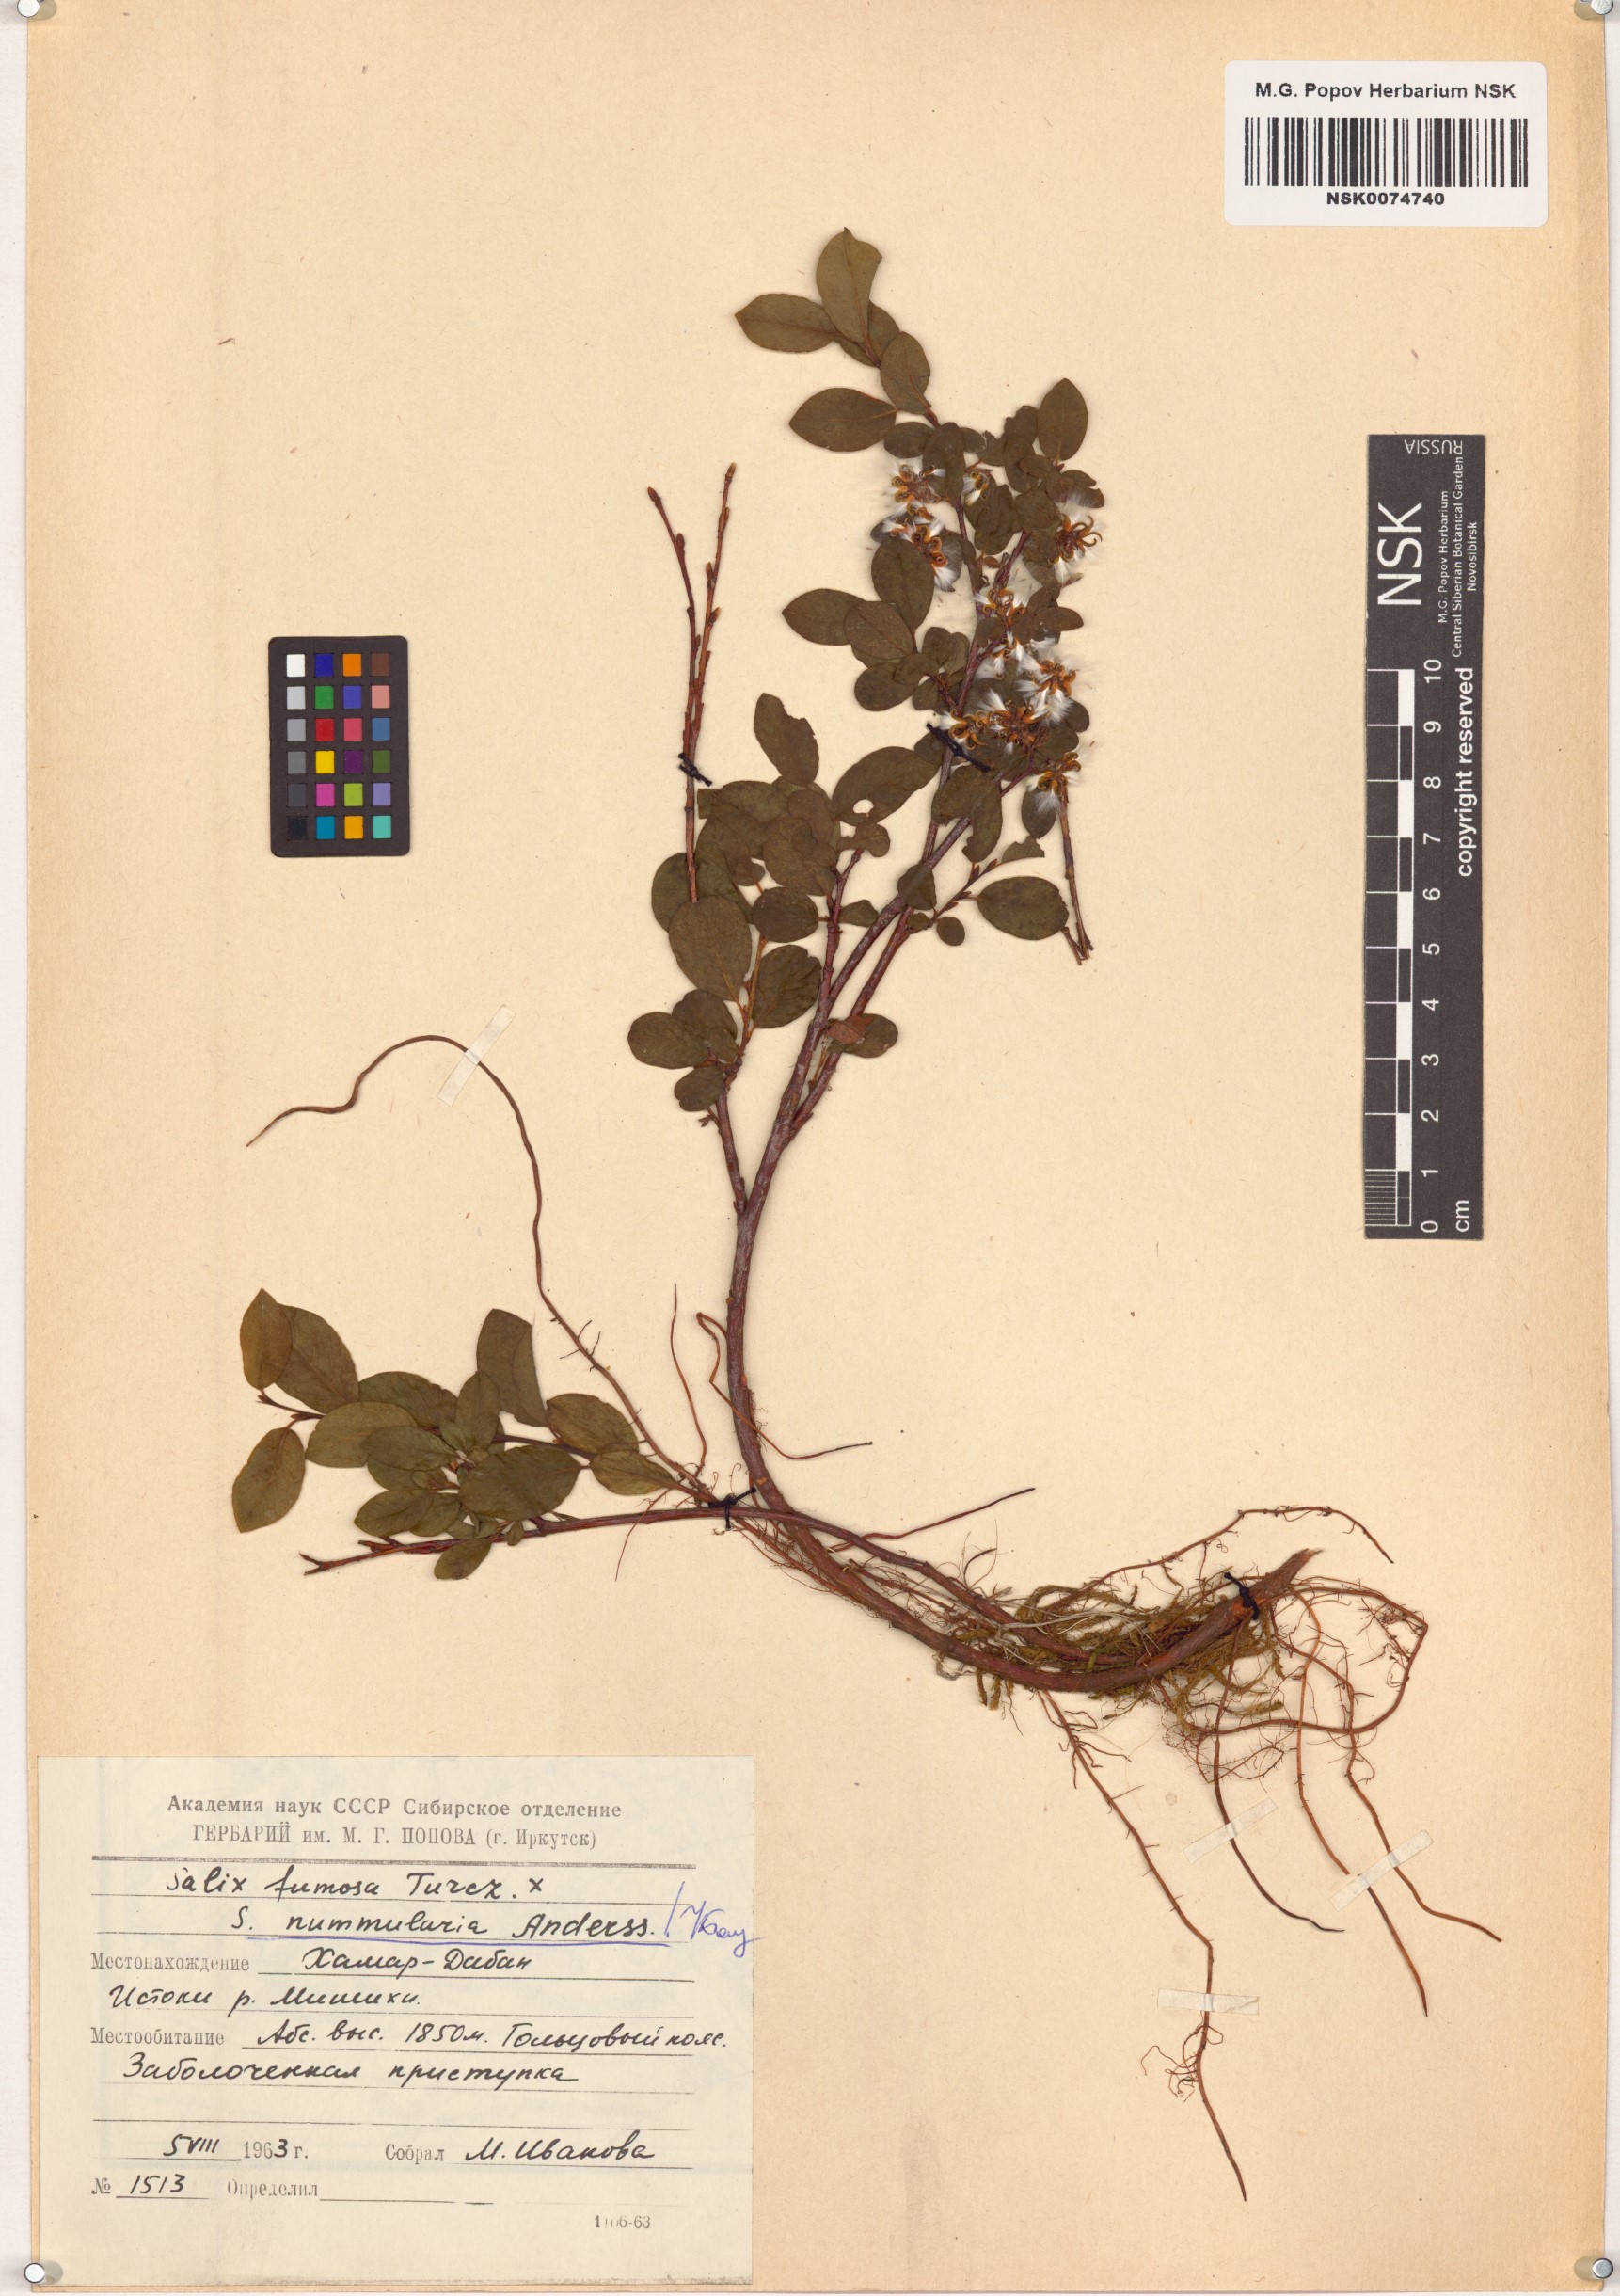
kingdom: Plantae
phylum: Tracheophyta
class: Magnoliopsida
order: Malpighiales
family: Salicaceae
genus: Salix
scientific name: Salix nummularia
